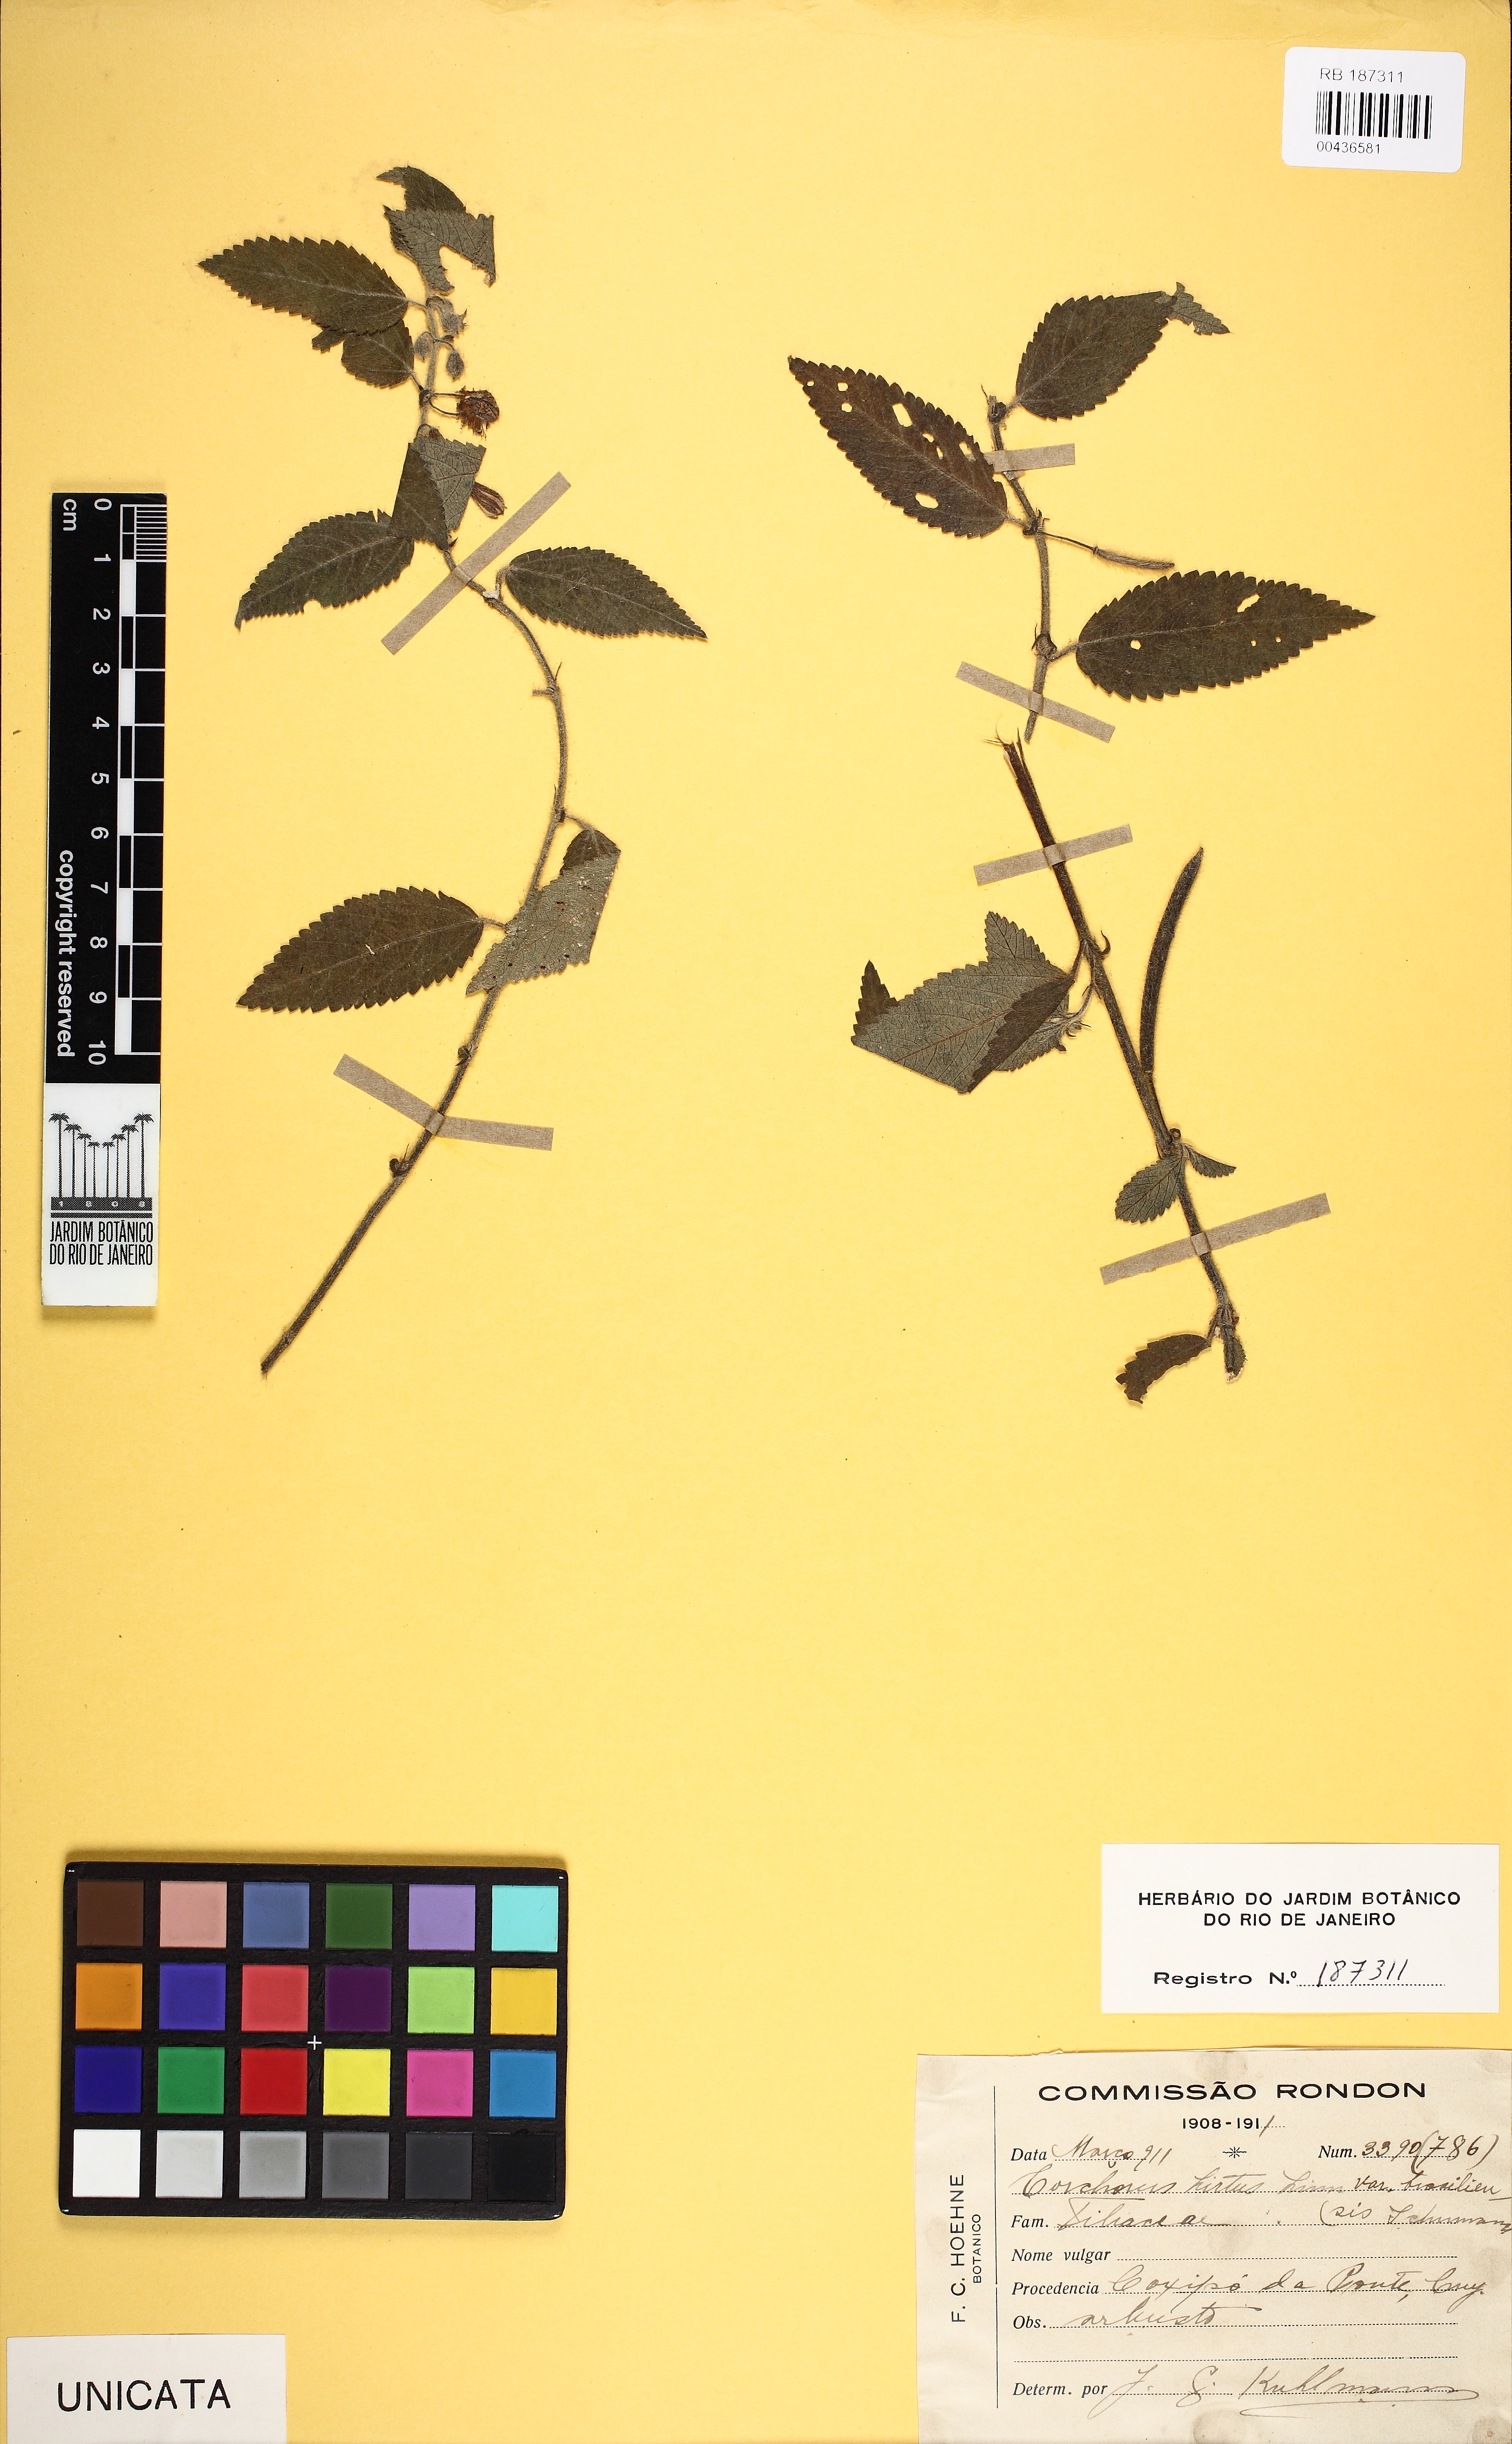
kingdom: Plantae
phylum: Tracheophyta
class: Magnoliopsida
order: Malvales
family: Malvaceae
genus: Corchorus
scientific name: Corchorus hirsutus
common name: Jackswitch
